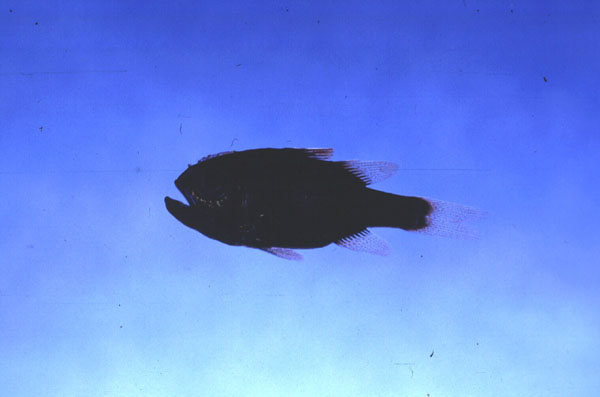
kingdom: Animalia
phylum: Chordata
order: Perciformes
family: Apogonidae
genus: Siphamia
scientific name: Siphamia mossambica
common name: Sea urchin cardinal
